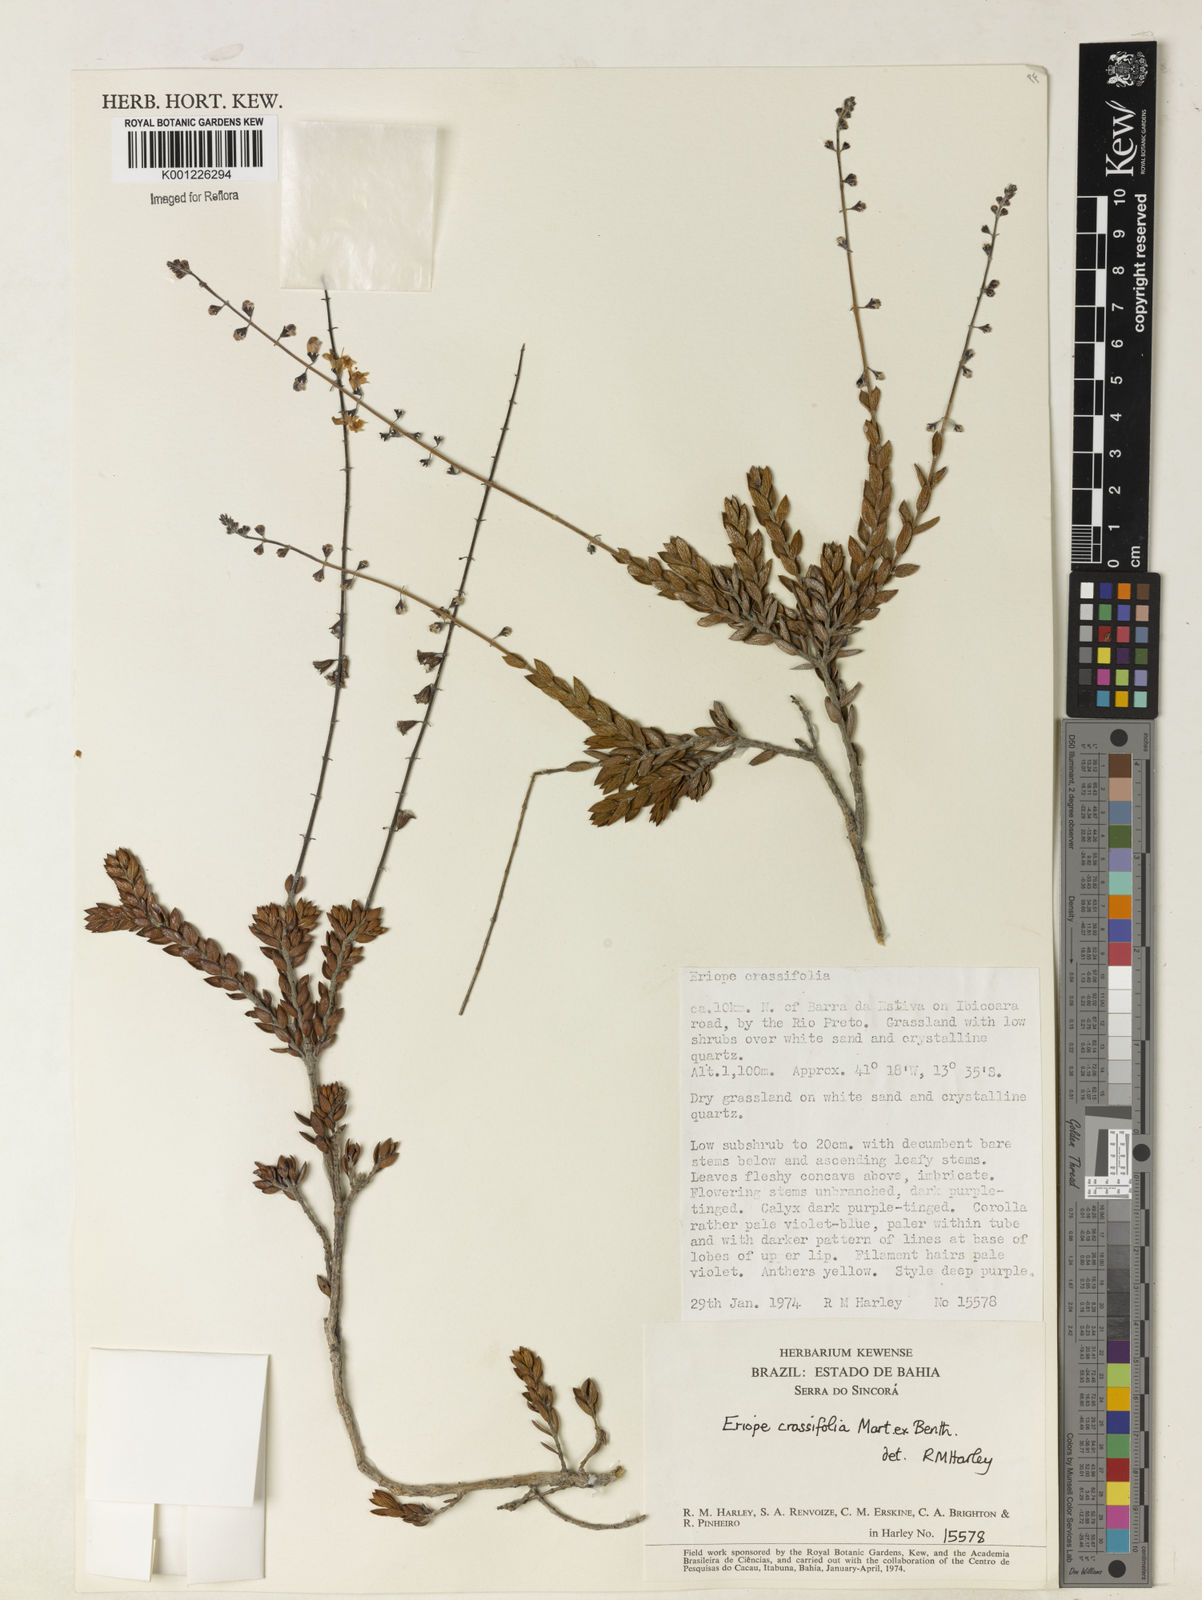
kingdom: Plantae
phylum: Tracheophyta
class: Magnoliopsida
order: Lamiales
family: Lamiaceae
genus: Eriope
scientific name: Eriope crassifolia
